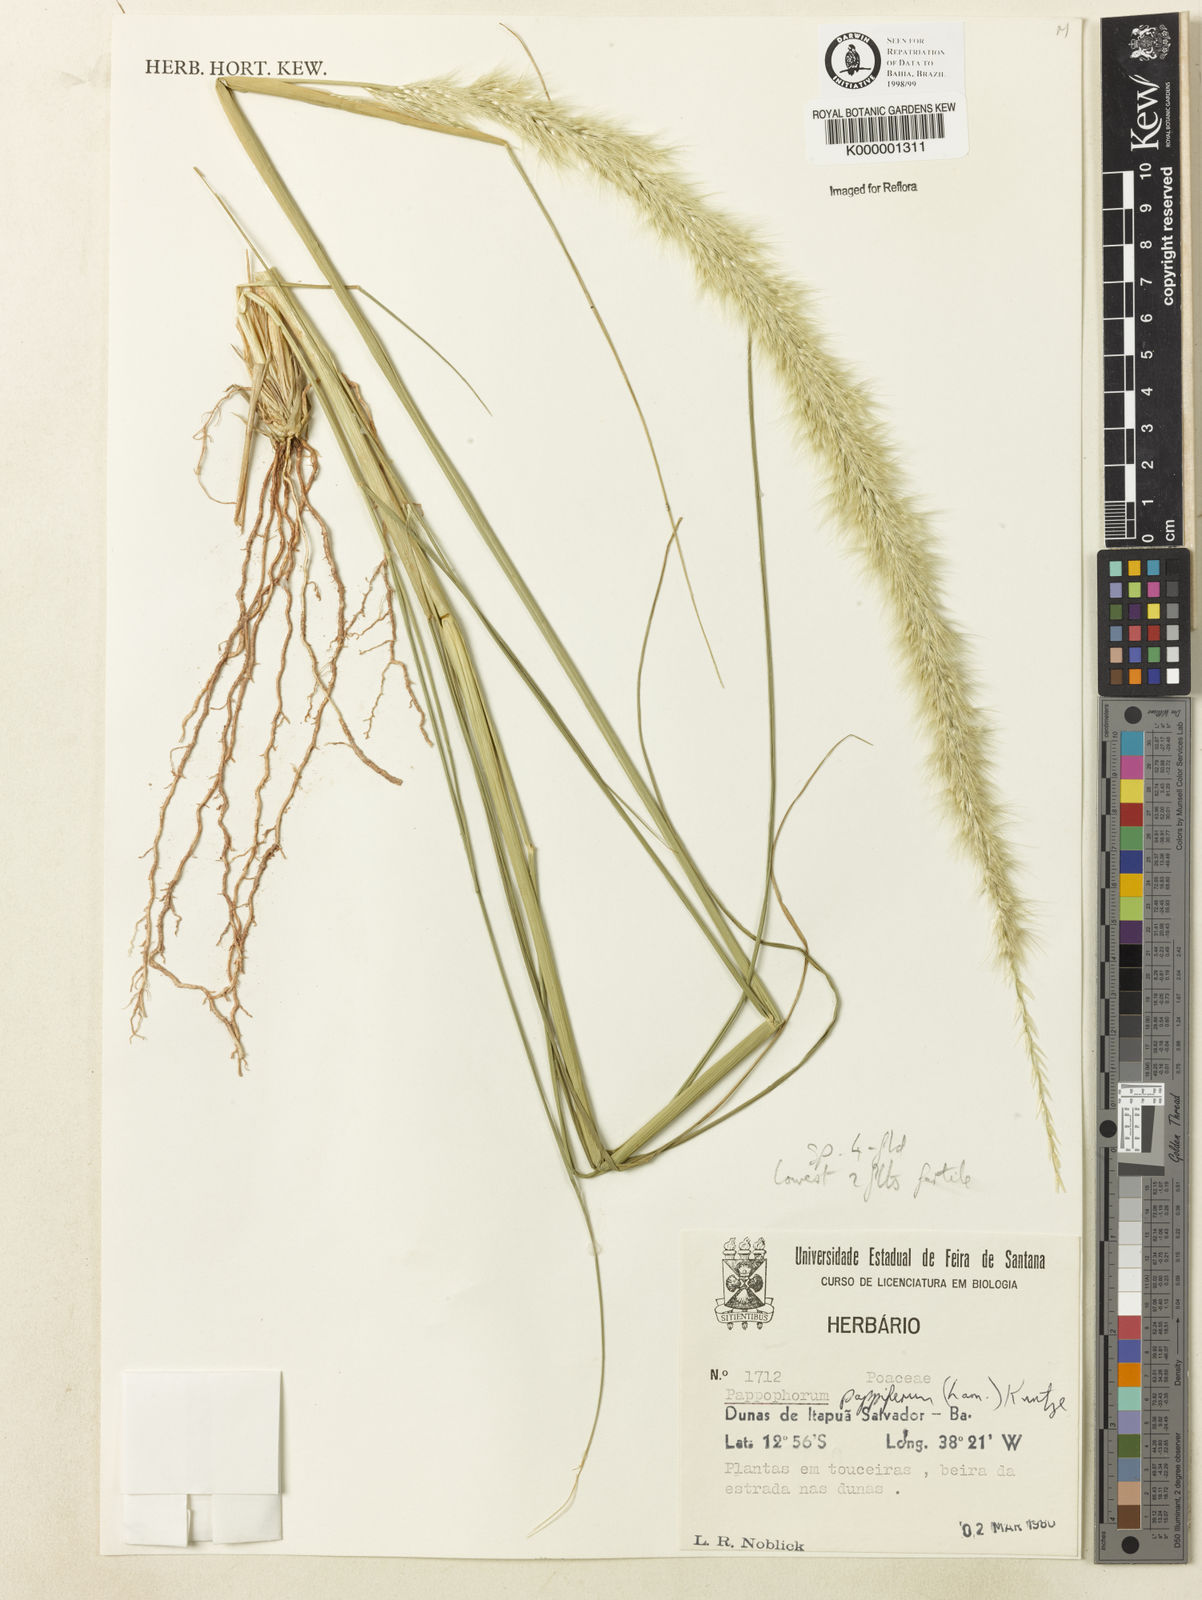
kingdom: Plantae
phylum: Tracheophyta
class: Liliopsida
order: Poales
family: Poaceae
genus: Pappophorum
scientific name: Pappophorum krapovickasii
